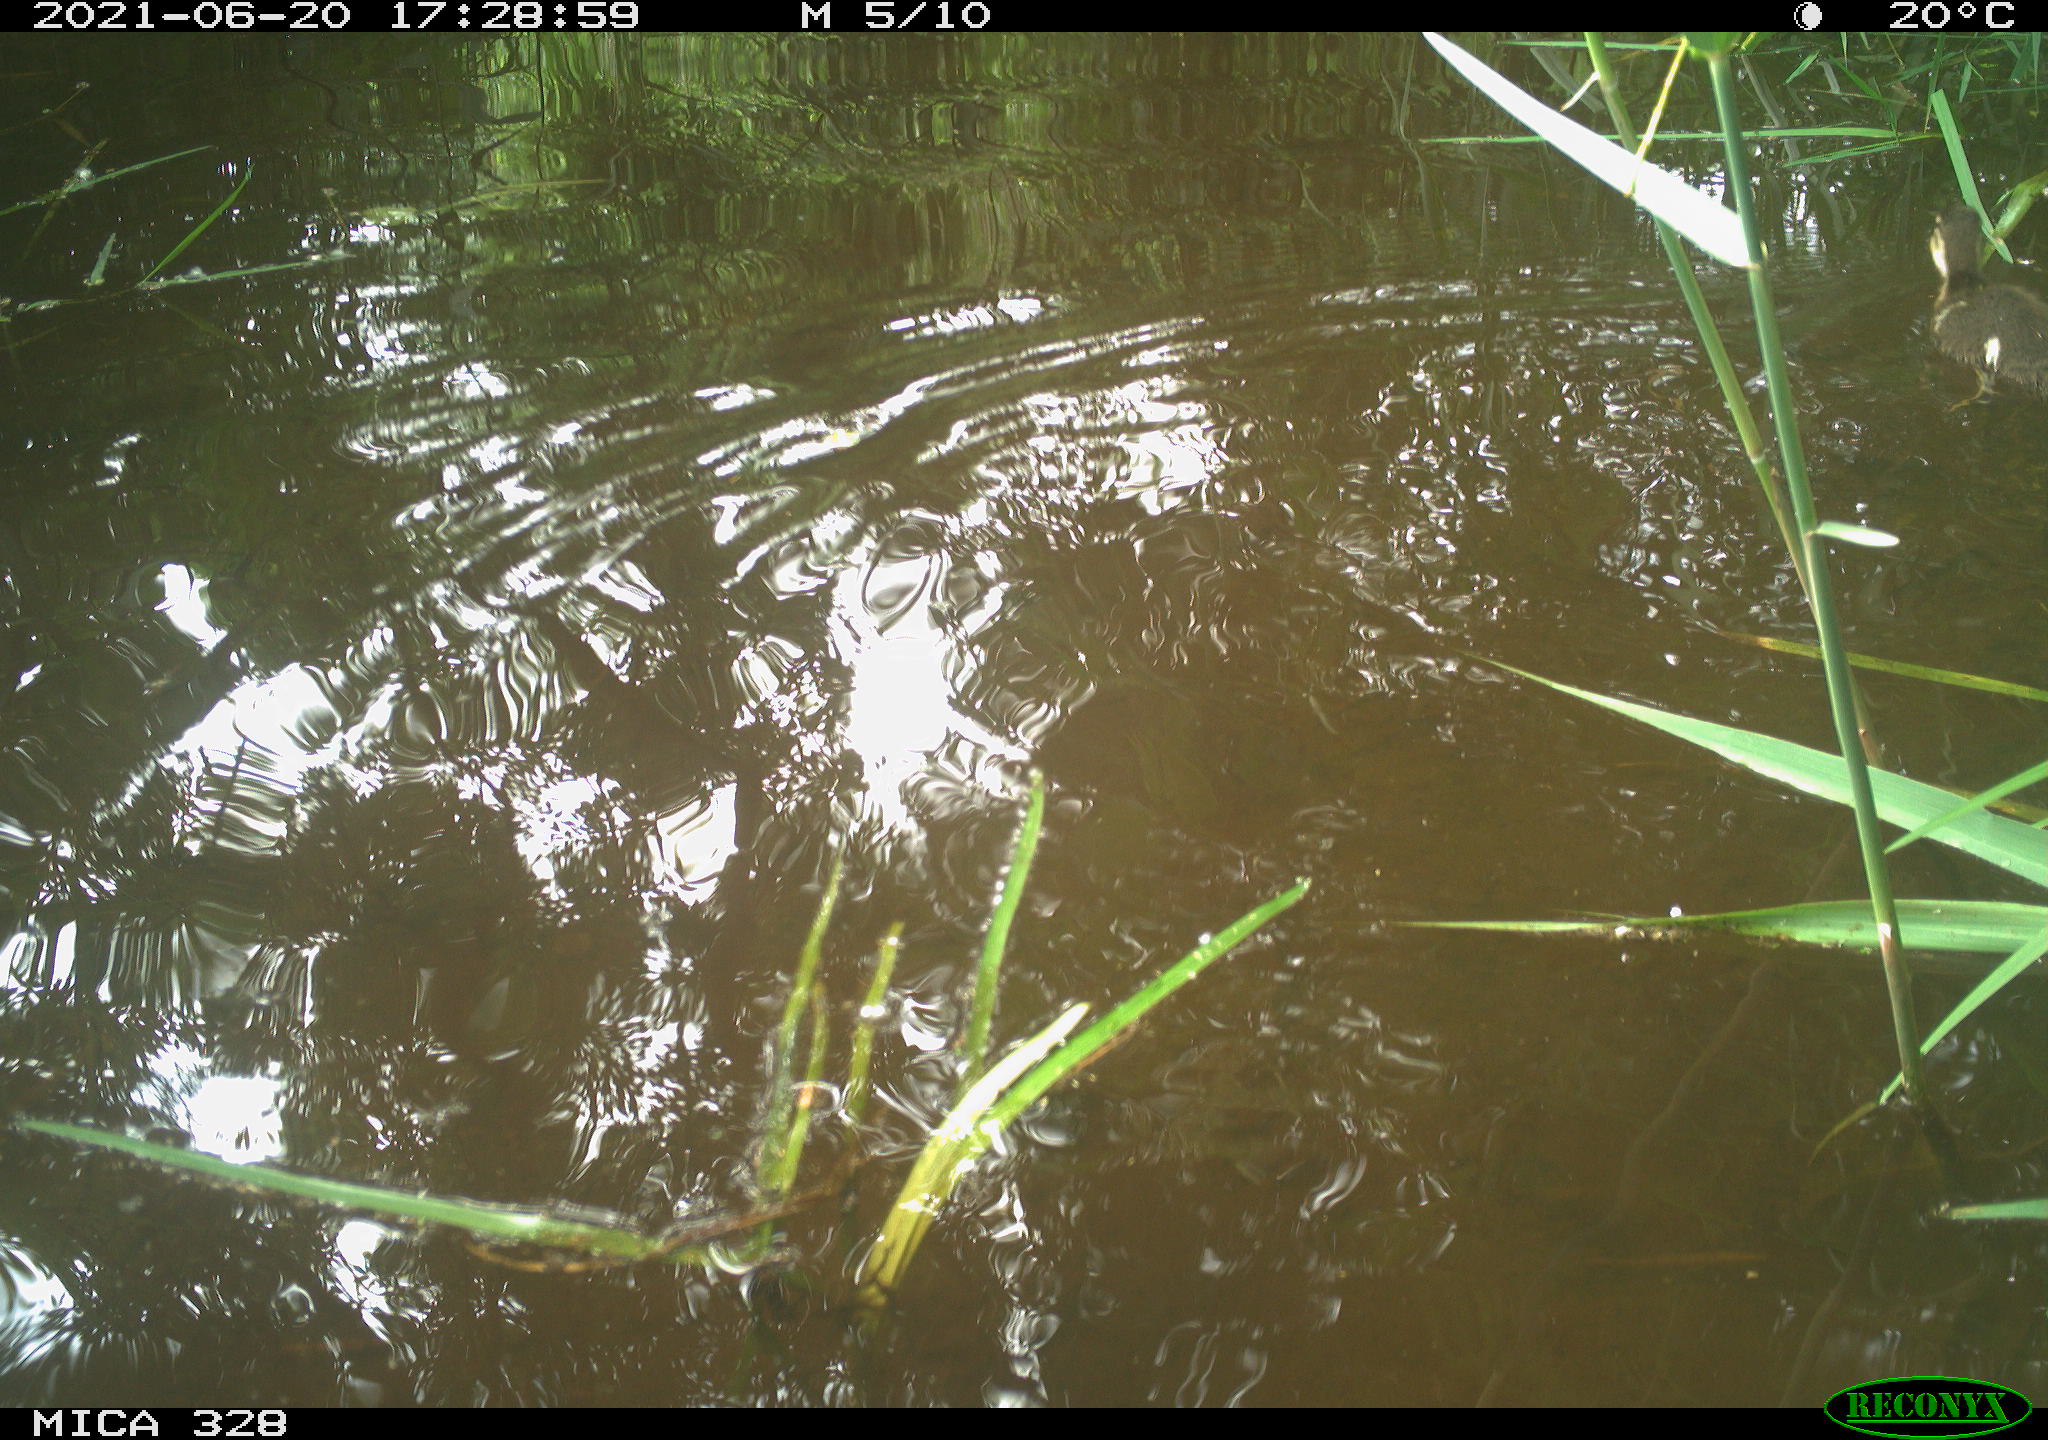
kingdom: Animalia
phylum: Chordata
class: Mammalia
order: Rodentia
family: Cricetidae
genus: Ondatra
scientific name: Ondatra zibethicus
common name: Muskrat
